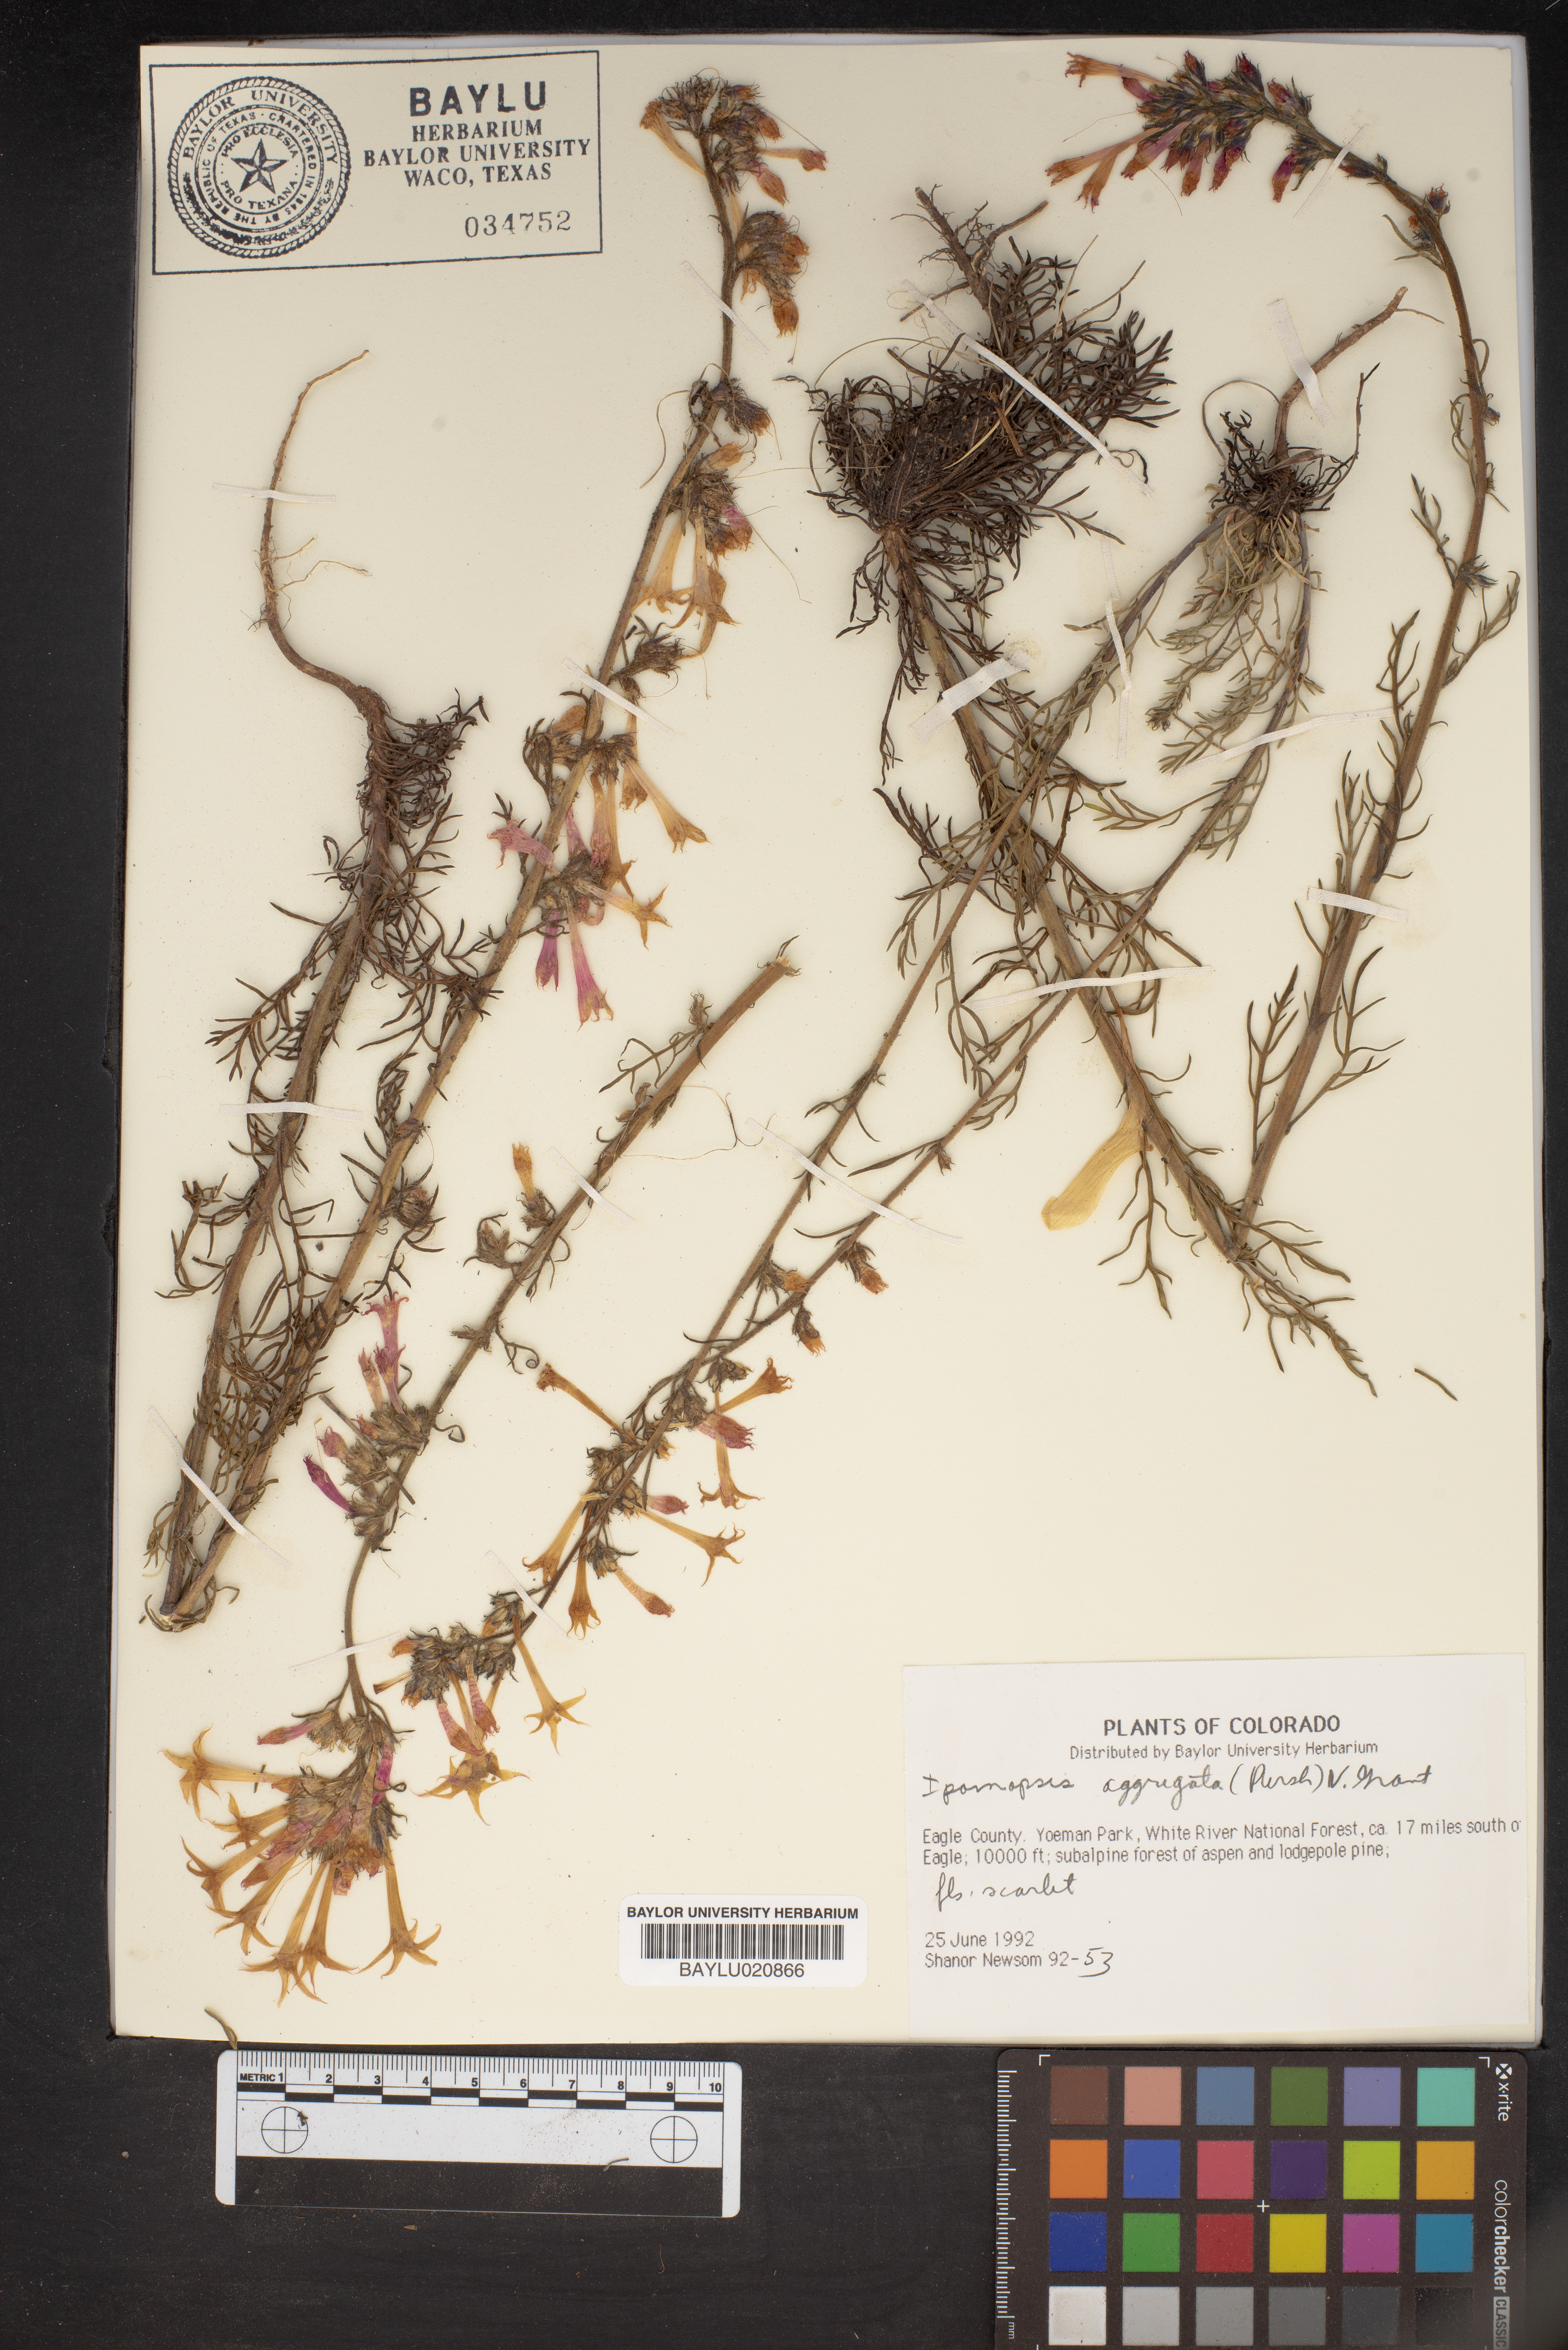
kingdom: Plantae
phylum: Tracheophyta
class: Magnoliopsida
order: Ericales
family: Polemoniaceae
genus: Ipomopsis
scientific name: Ipomopsis aggregata
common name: Scarlet gilia
